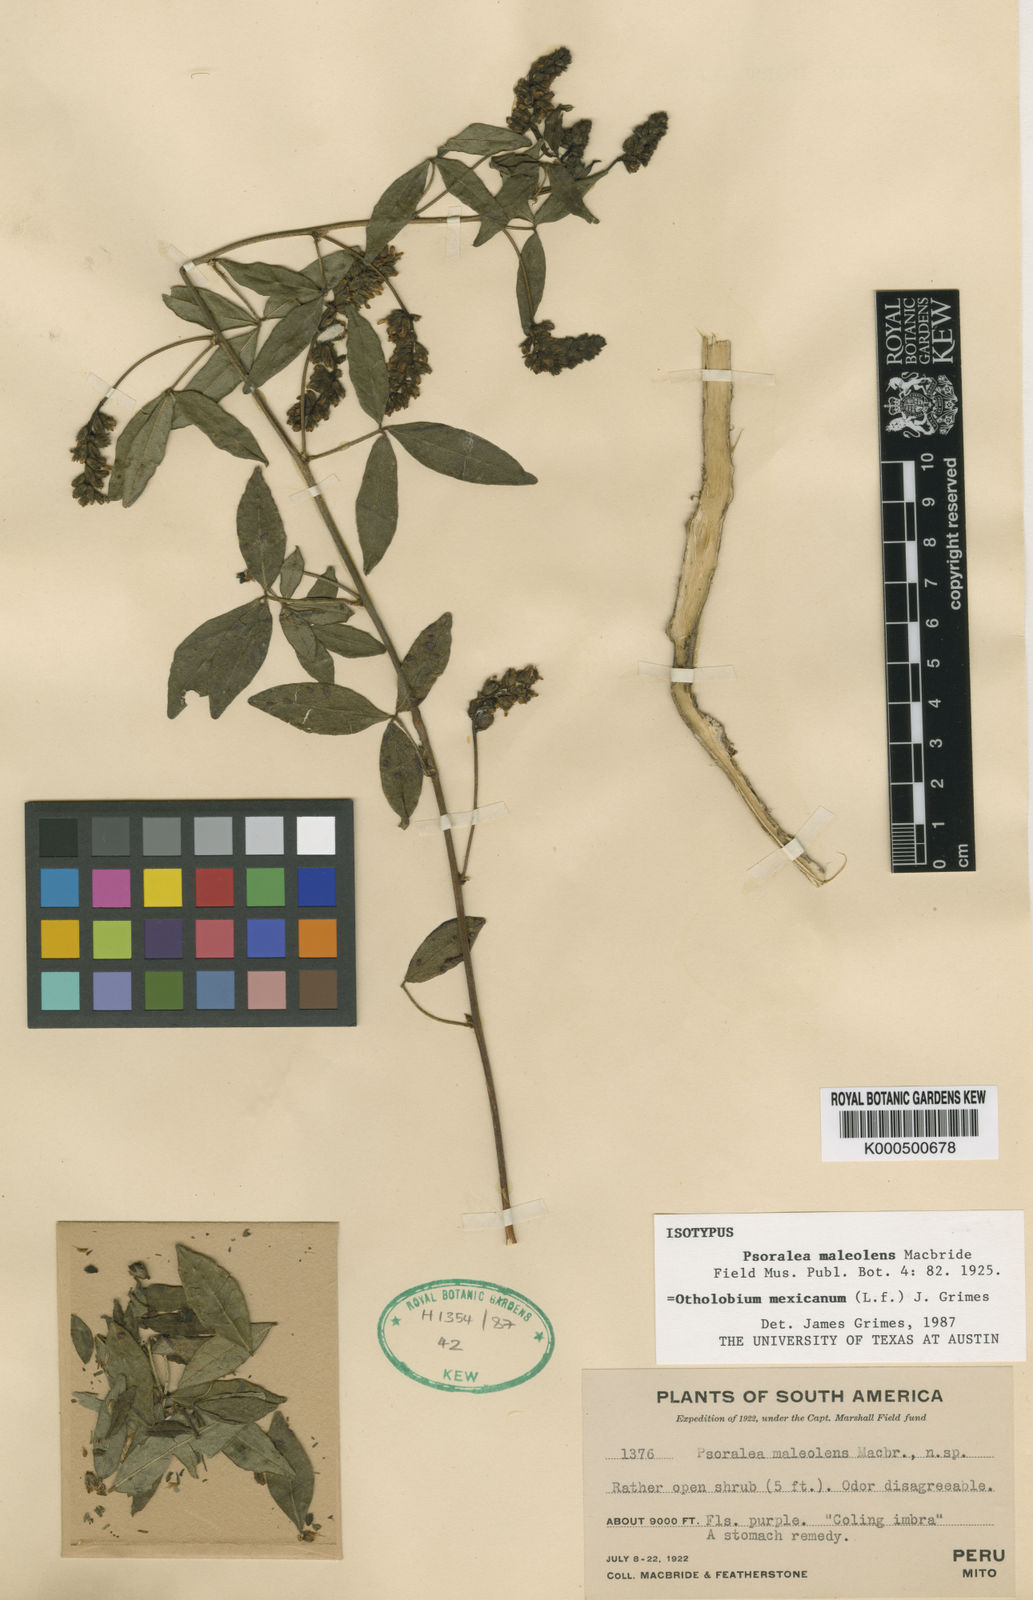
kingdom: Plantae
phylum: Tracheophyta
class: Magnoliopsida
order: Fabales
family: Fabaceae
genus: Psoralea
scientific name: Psoralea Otholobium mexicanum
